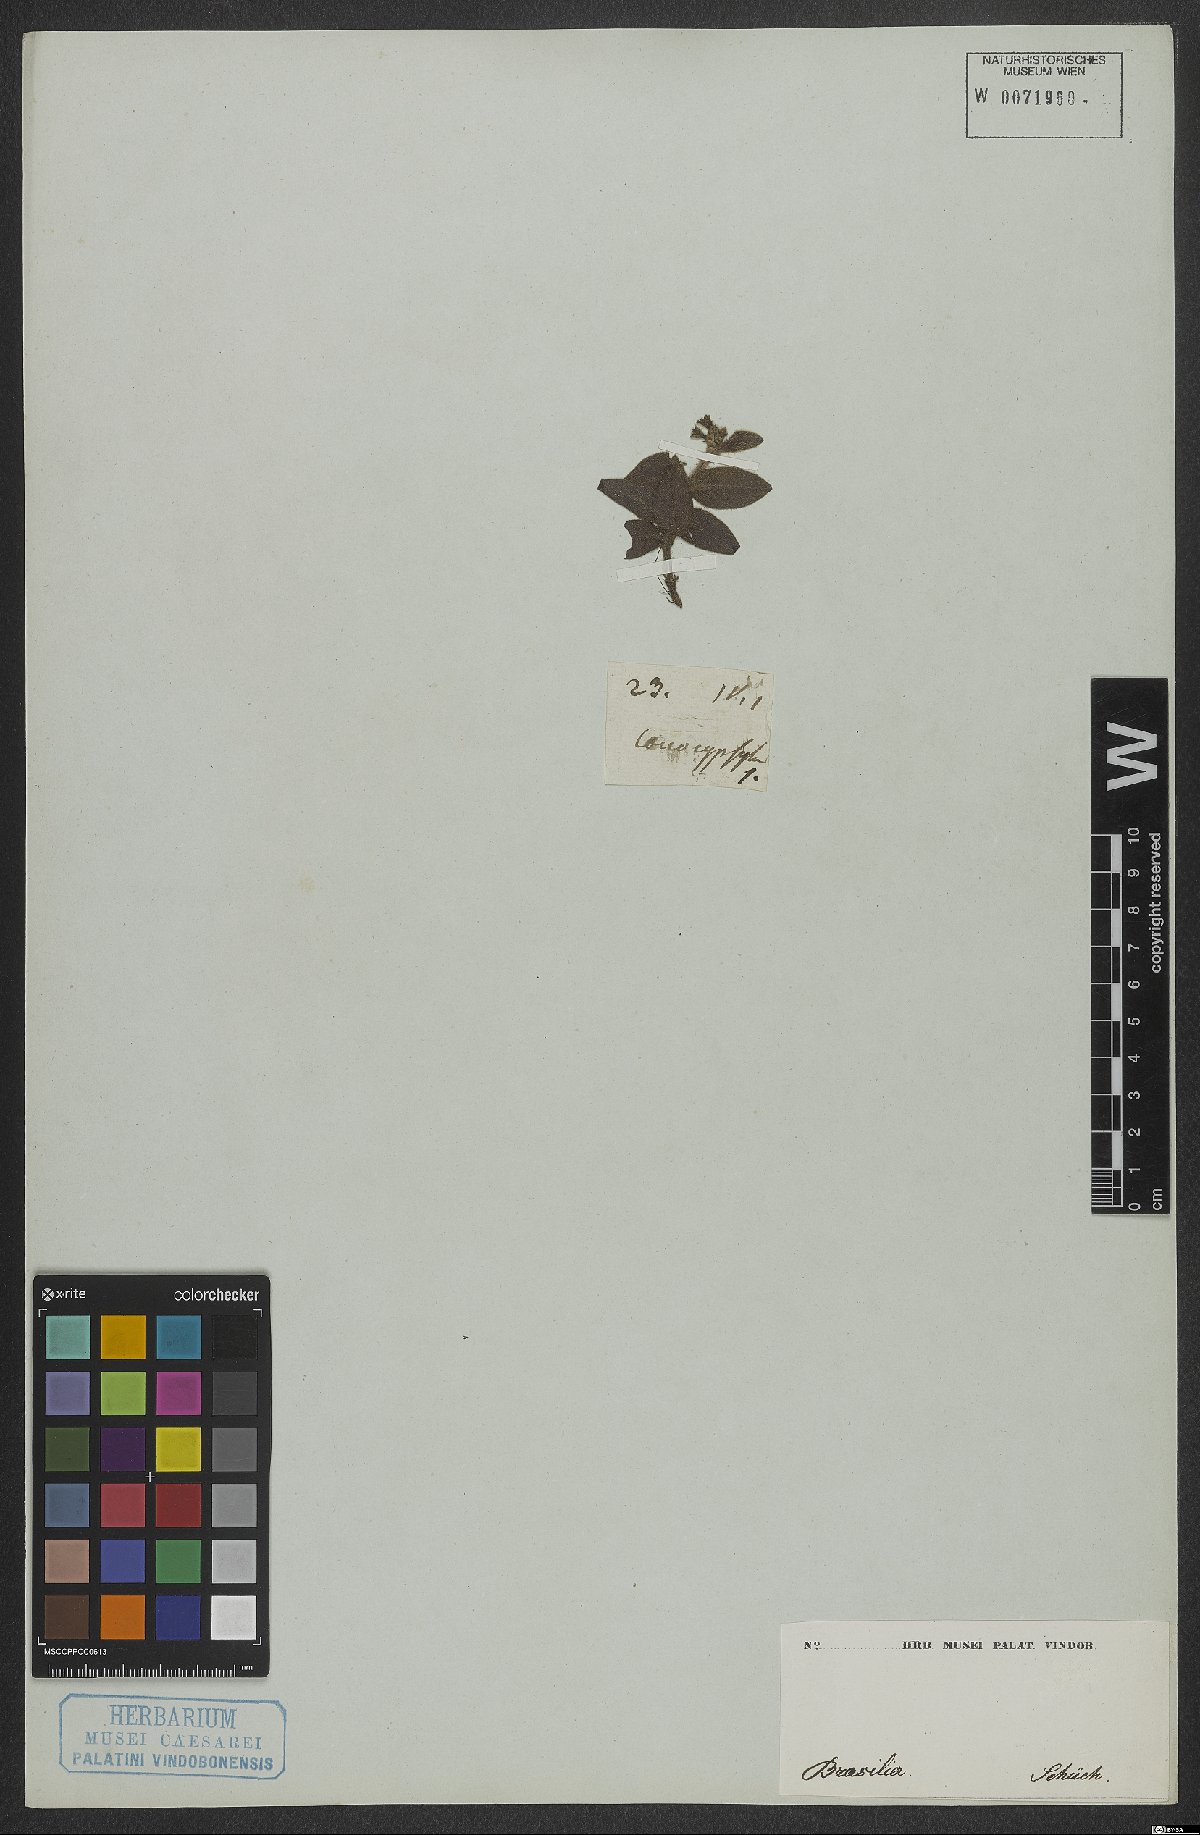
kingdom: Plantae
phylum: Tracheophyta
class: Magnoliopsida
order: Gentianales
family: Rubiaceae
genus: Coccocypselum
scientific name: Coccocypselum
